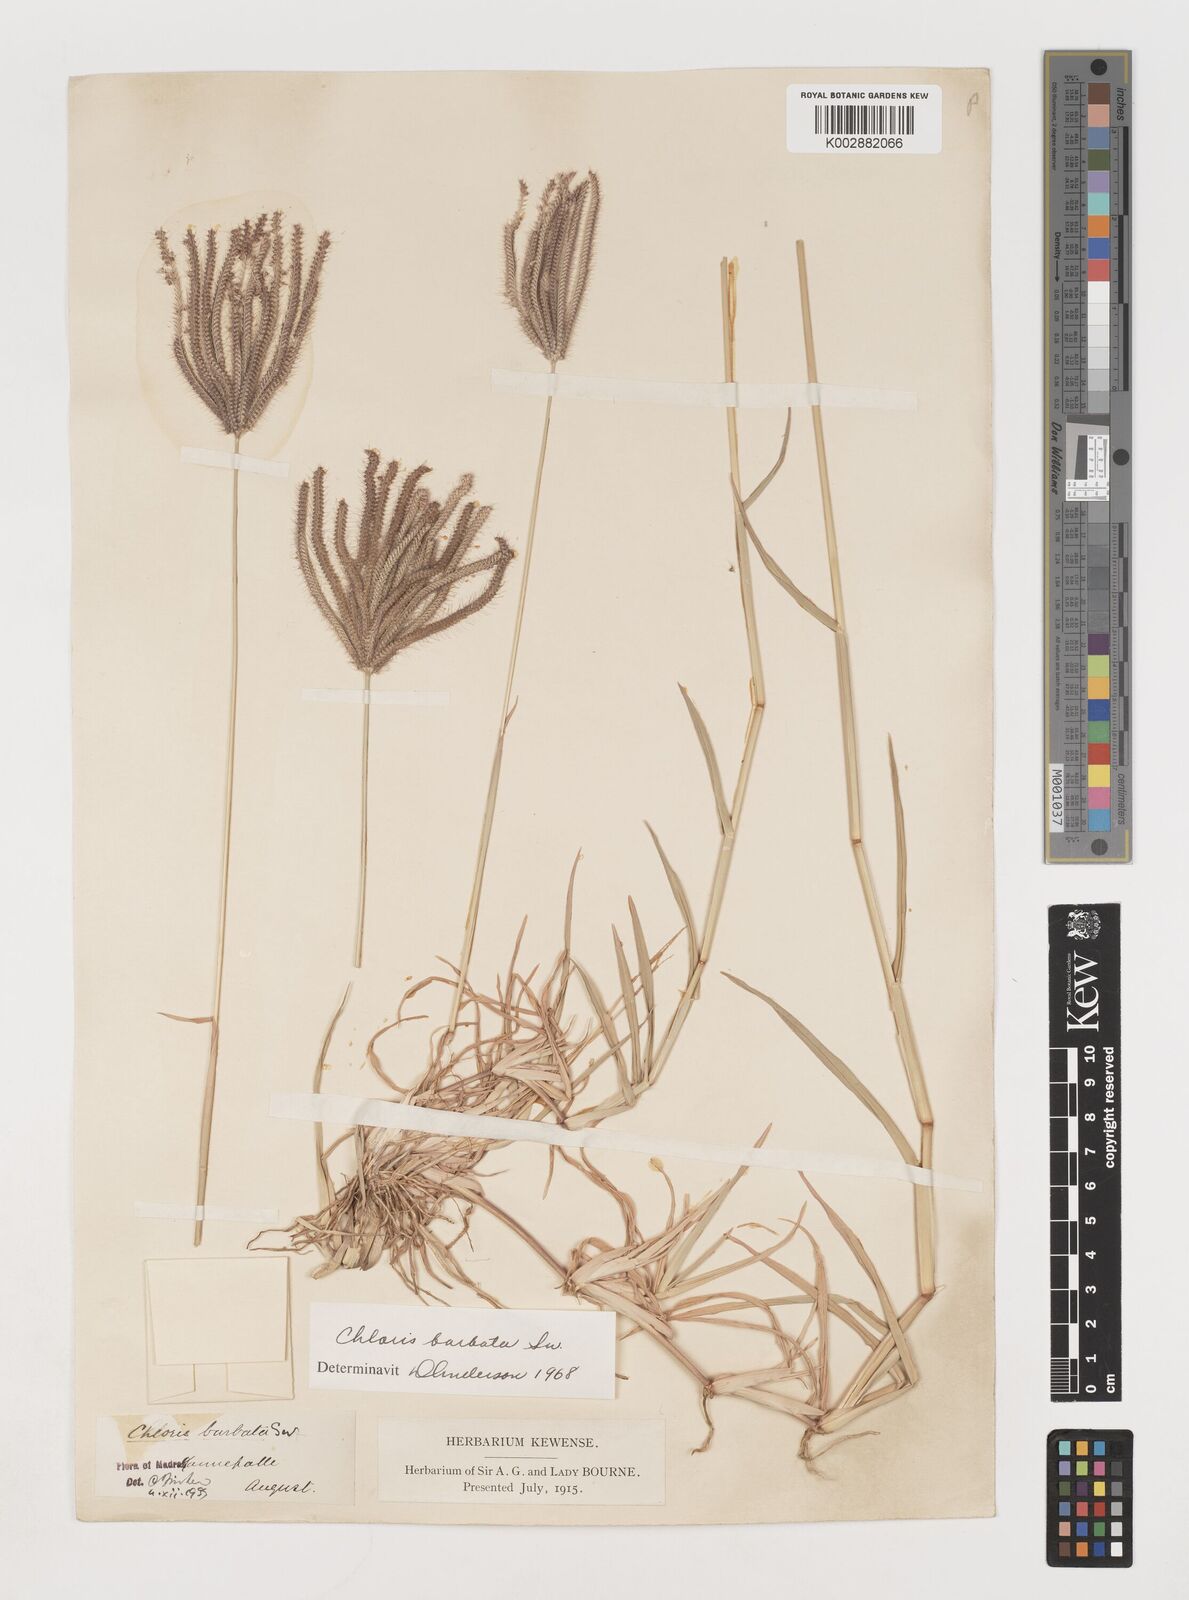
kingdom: Plantae
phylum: Tracheophyta
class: Liliopsida
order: Poales
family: Poaceae
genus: Chloris
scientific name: Chloris barbata
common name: Swollen fingergrass
